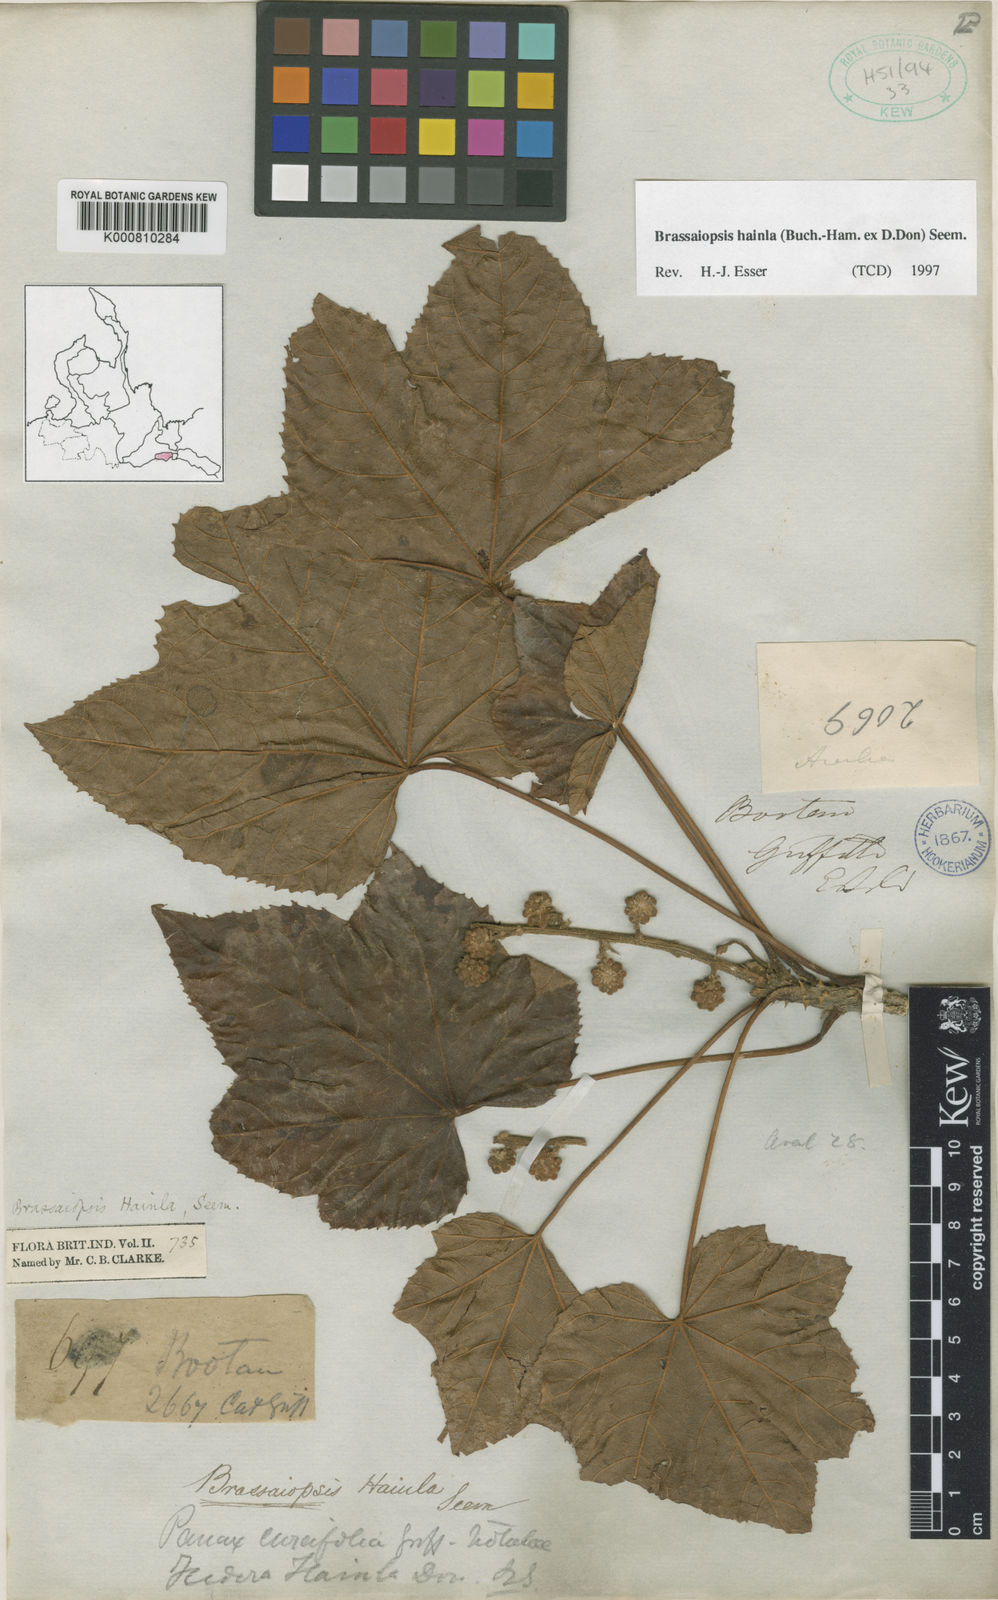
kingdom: Plantae
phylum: Tracheophyta
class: Magnoliopsida
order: Apiales
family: Araliaceae
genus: Brassaiopsis
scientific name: Brassaiopsis hainla
